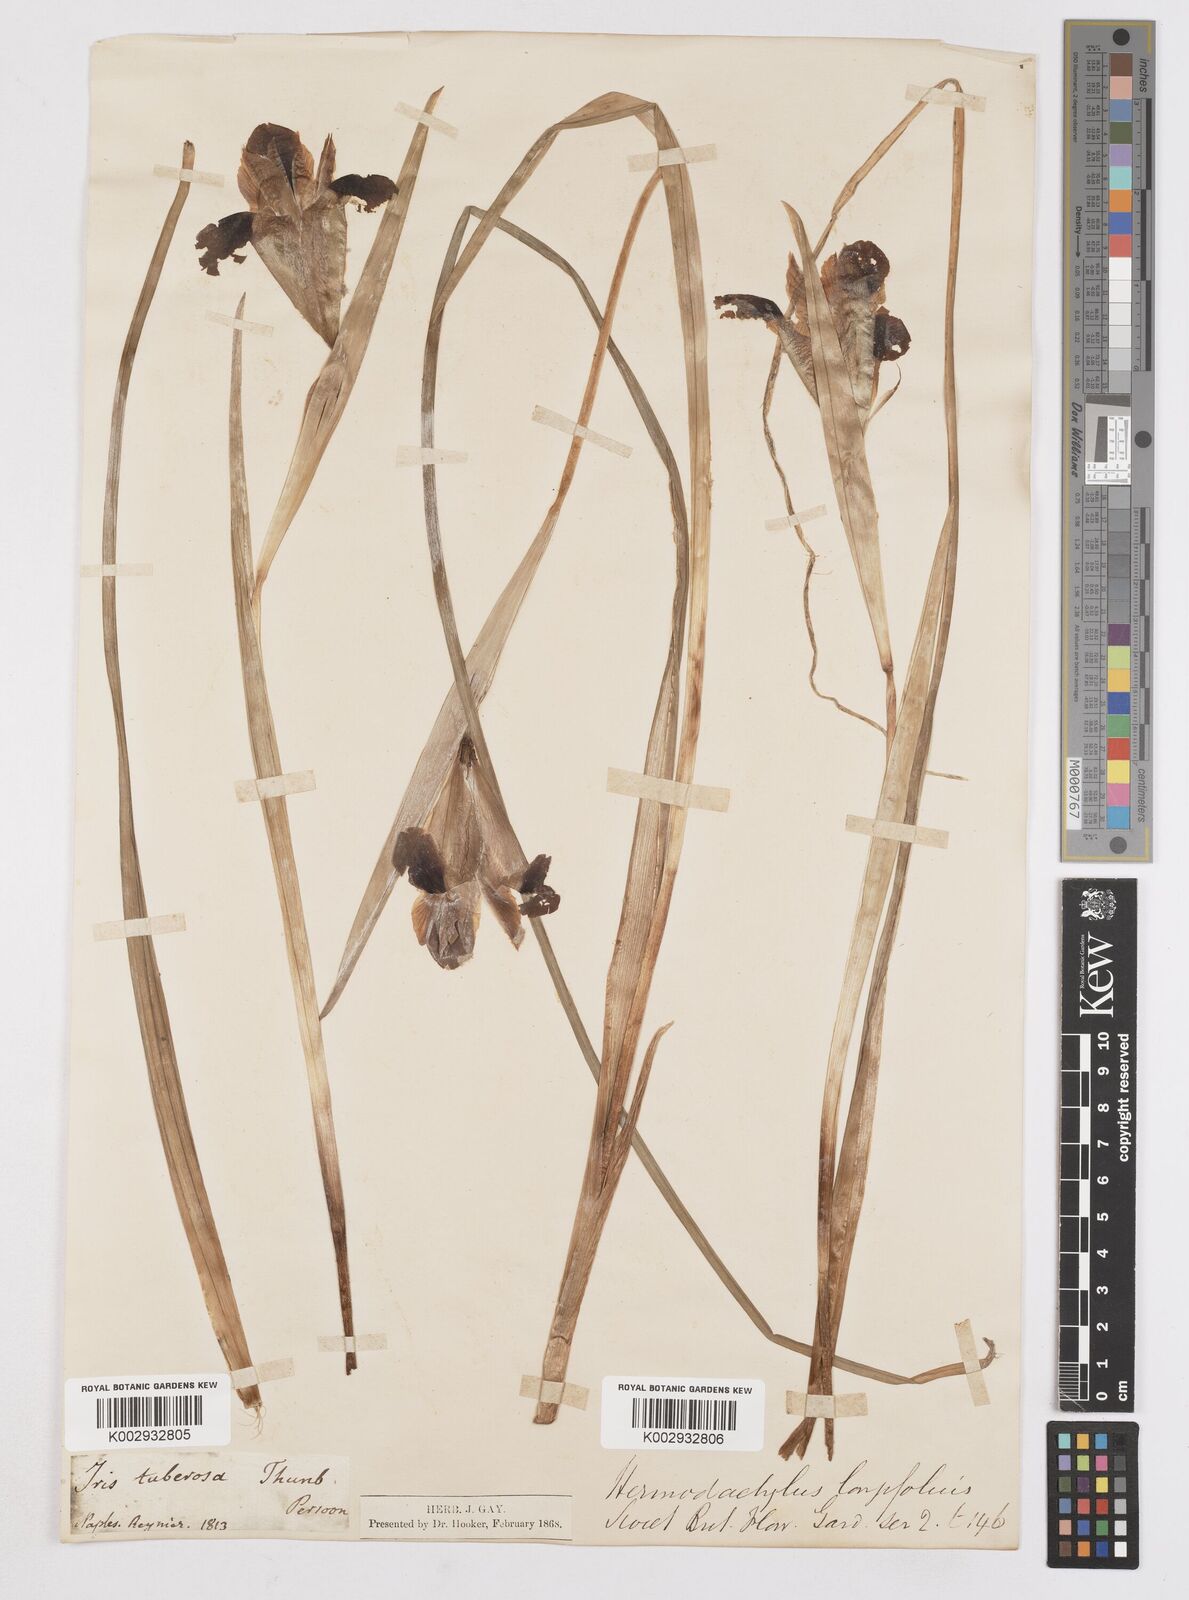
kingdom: Plantae
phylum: Tracheophyta
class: Liliopsida
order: Asparagales
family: Iridaceae
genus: Iris
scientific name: Iris tuberosa
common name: Snake's-head iris
